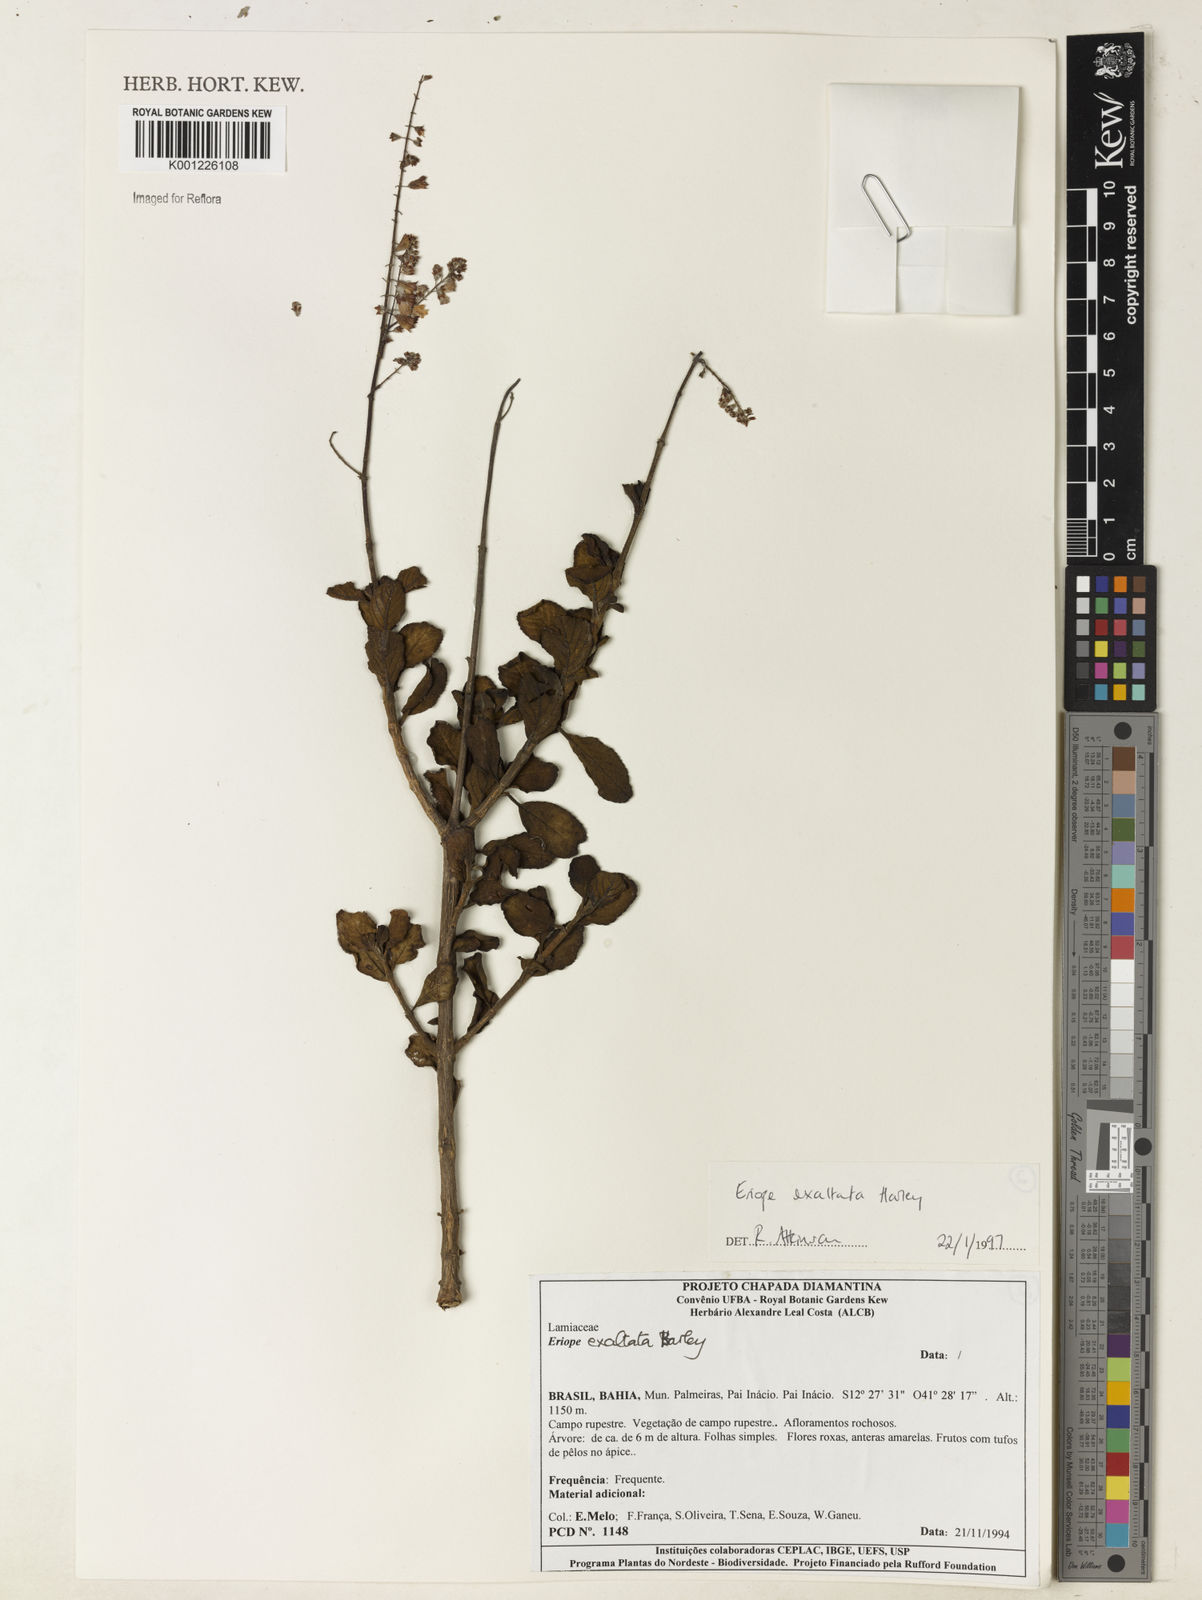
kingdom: Plantae
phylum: Tracheophyta
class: Magnoliopsida
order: Lamiales
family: Lamiaceae
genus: Eriope
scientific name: Eriope exaltata
